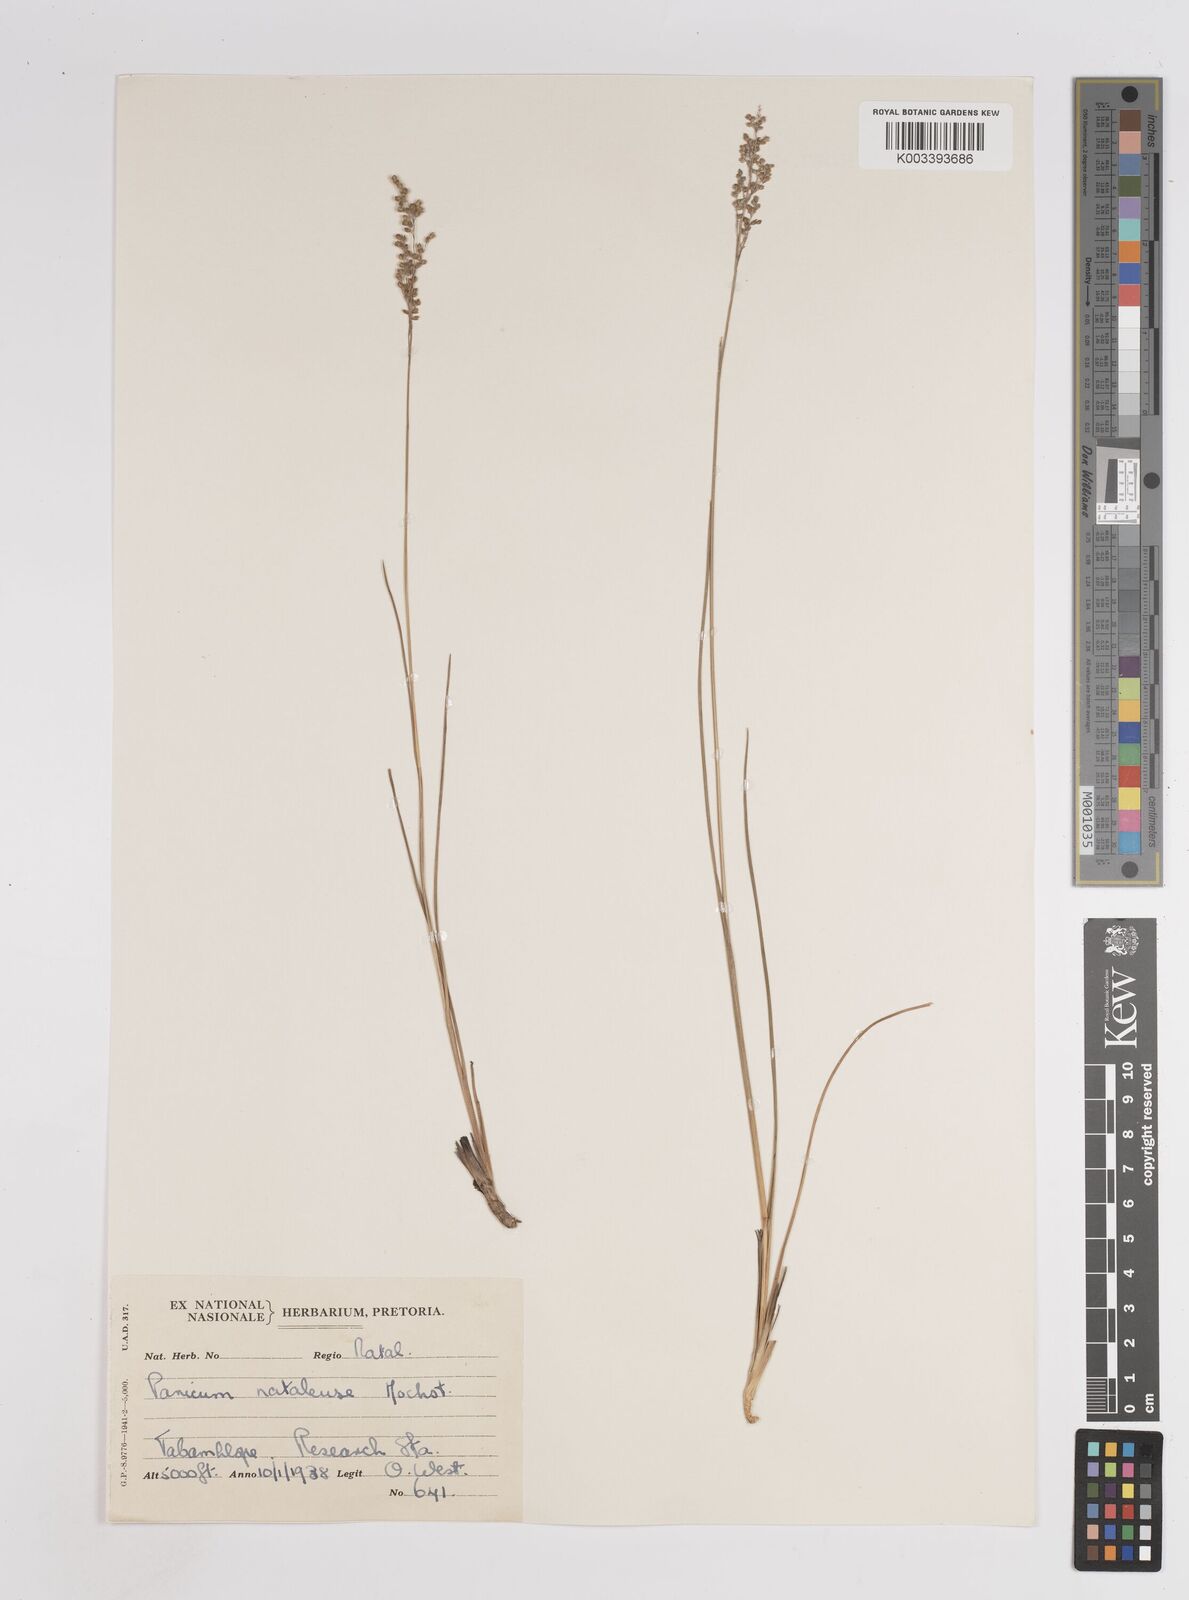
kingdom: Plantae
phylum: Tracheophyta
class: Liliopsida
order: Poales
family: Poaceae
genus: Trichanthecium
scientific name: Trichanthecium natalense
